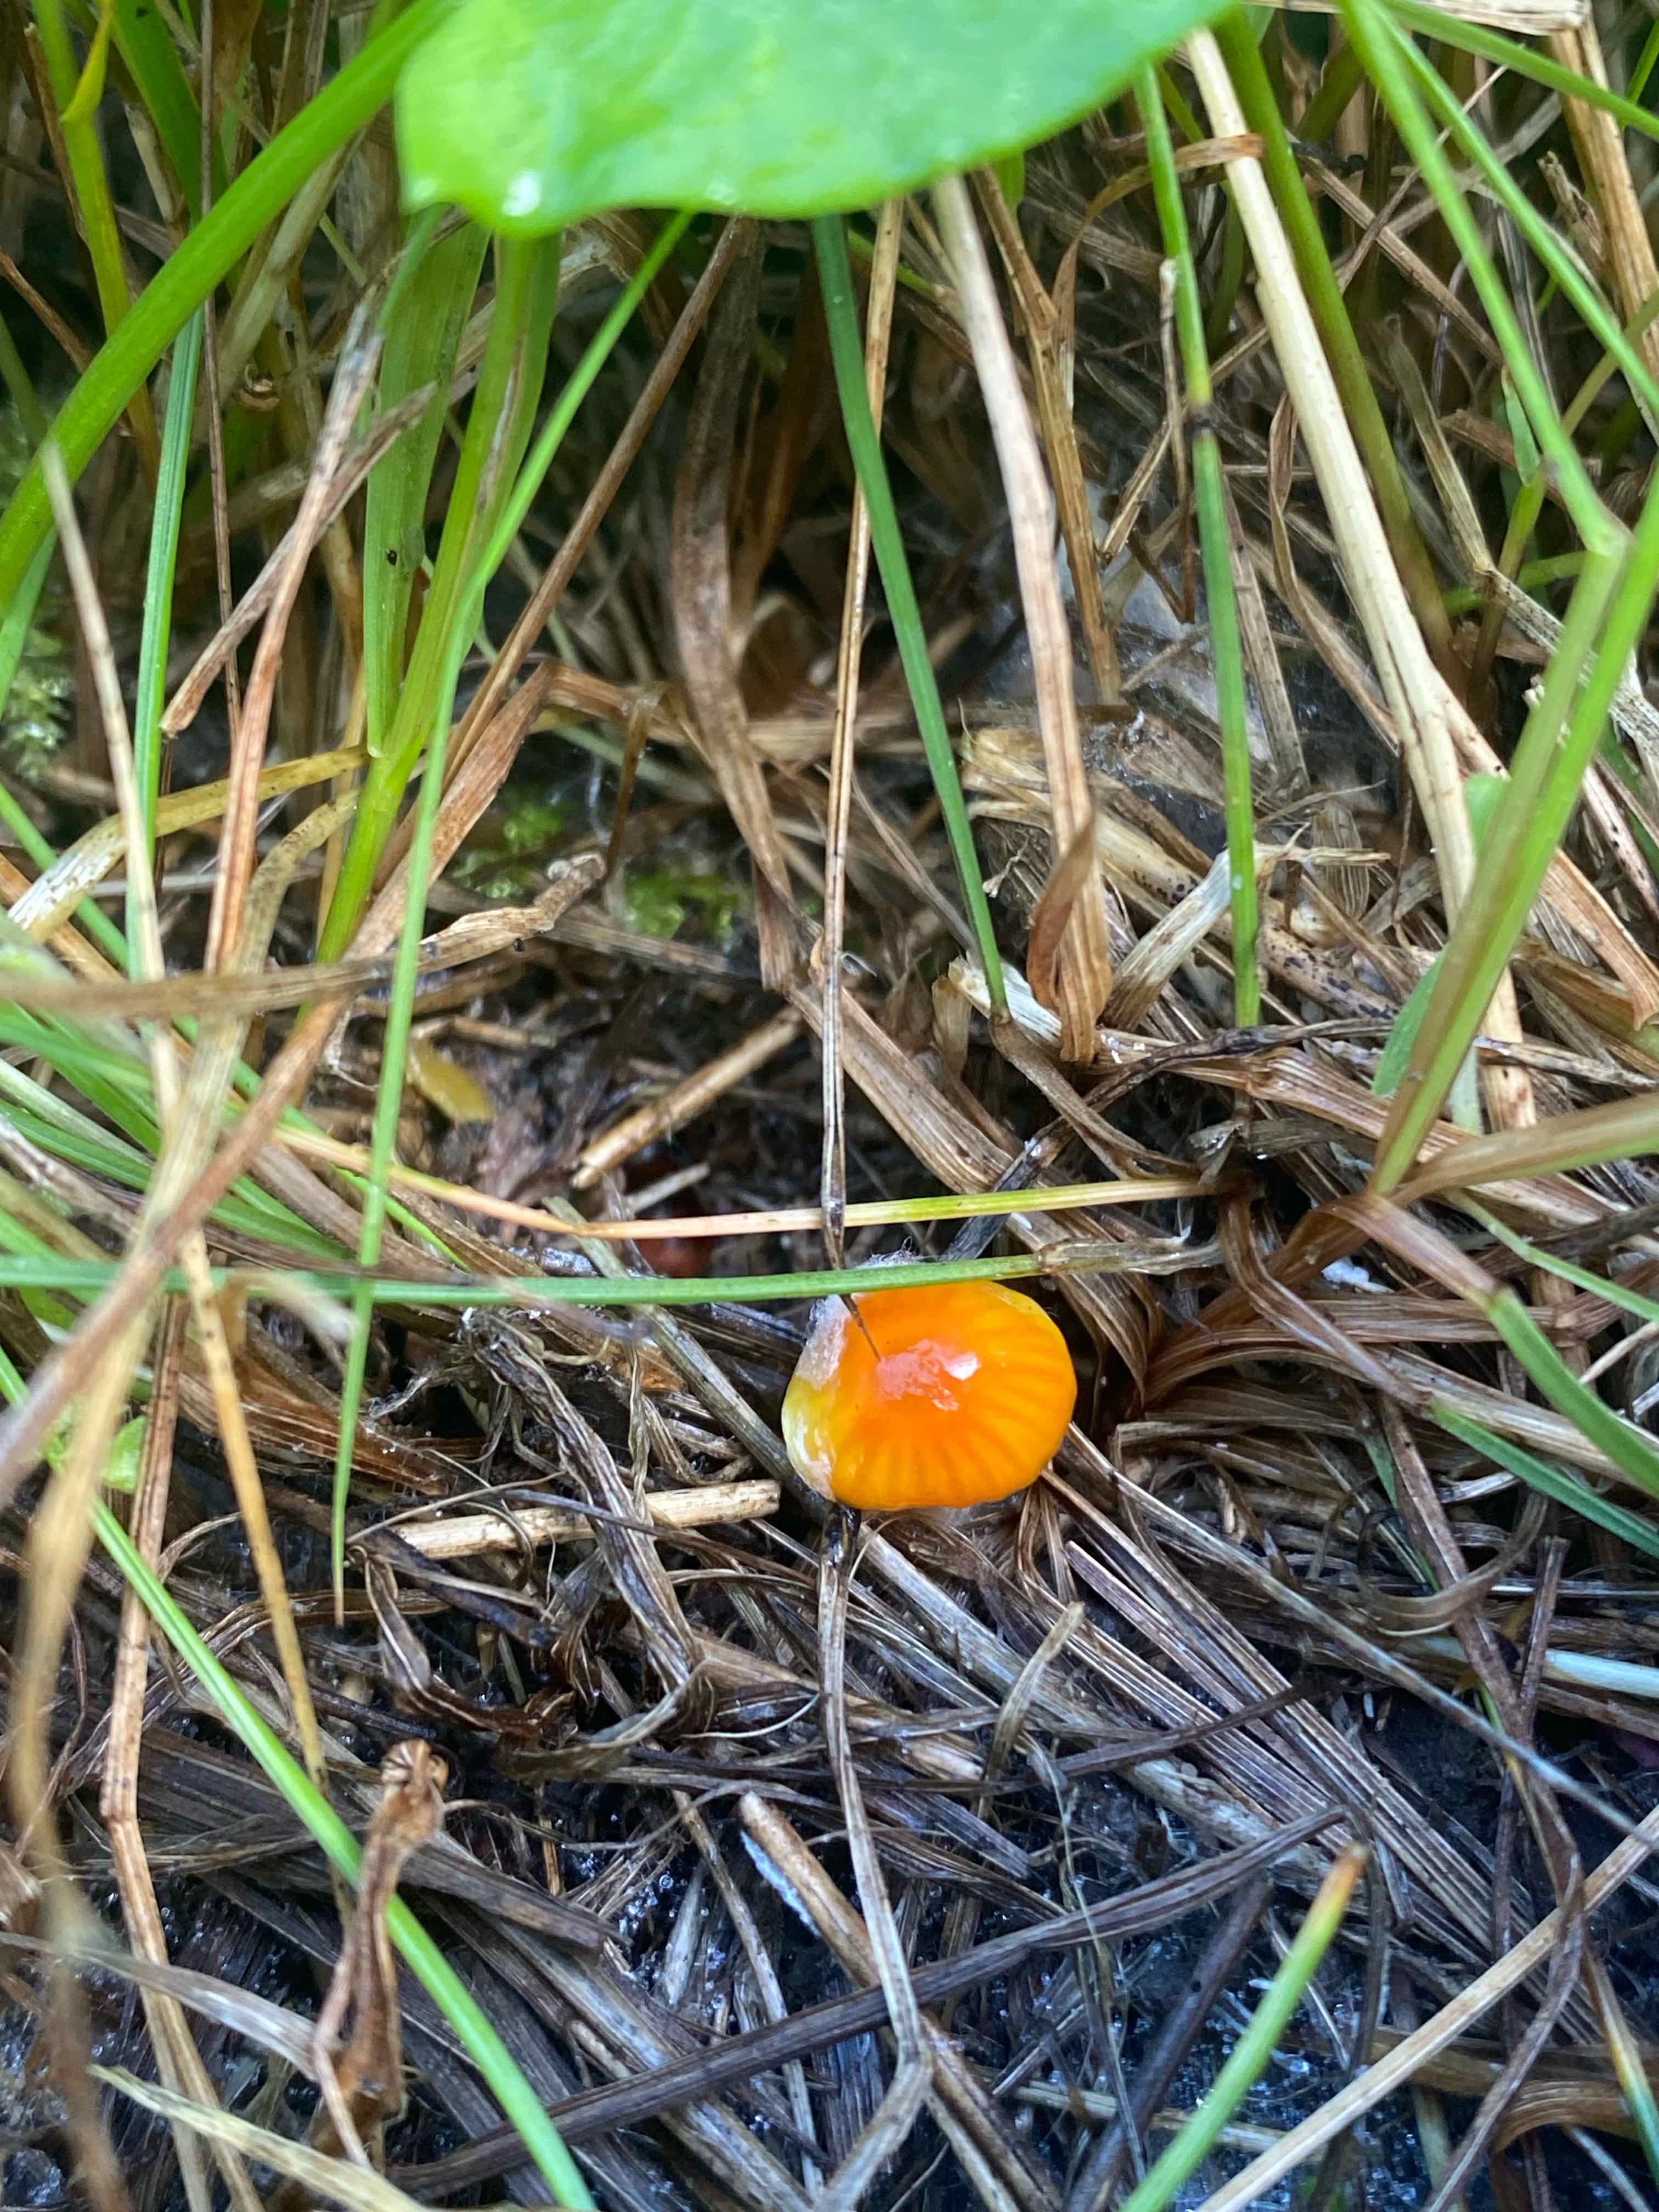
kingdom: Fungi
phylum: Basidiomycota
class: Agaricomycetes
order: Agaricales
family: Hygrophoraceae
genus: Hygrocybe
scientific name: Hygrocybe
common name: vokshat
